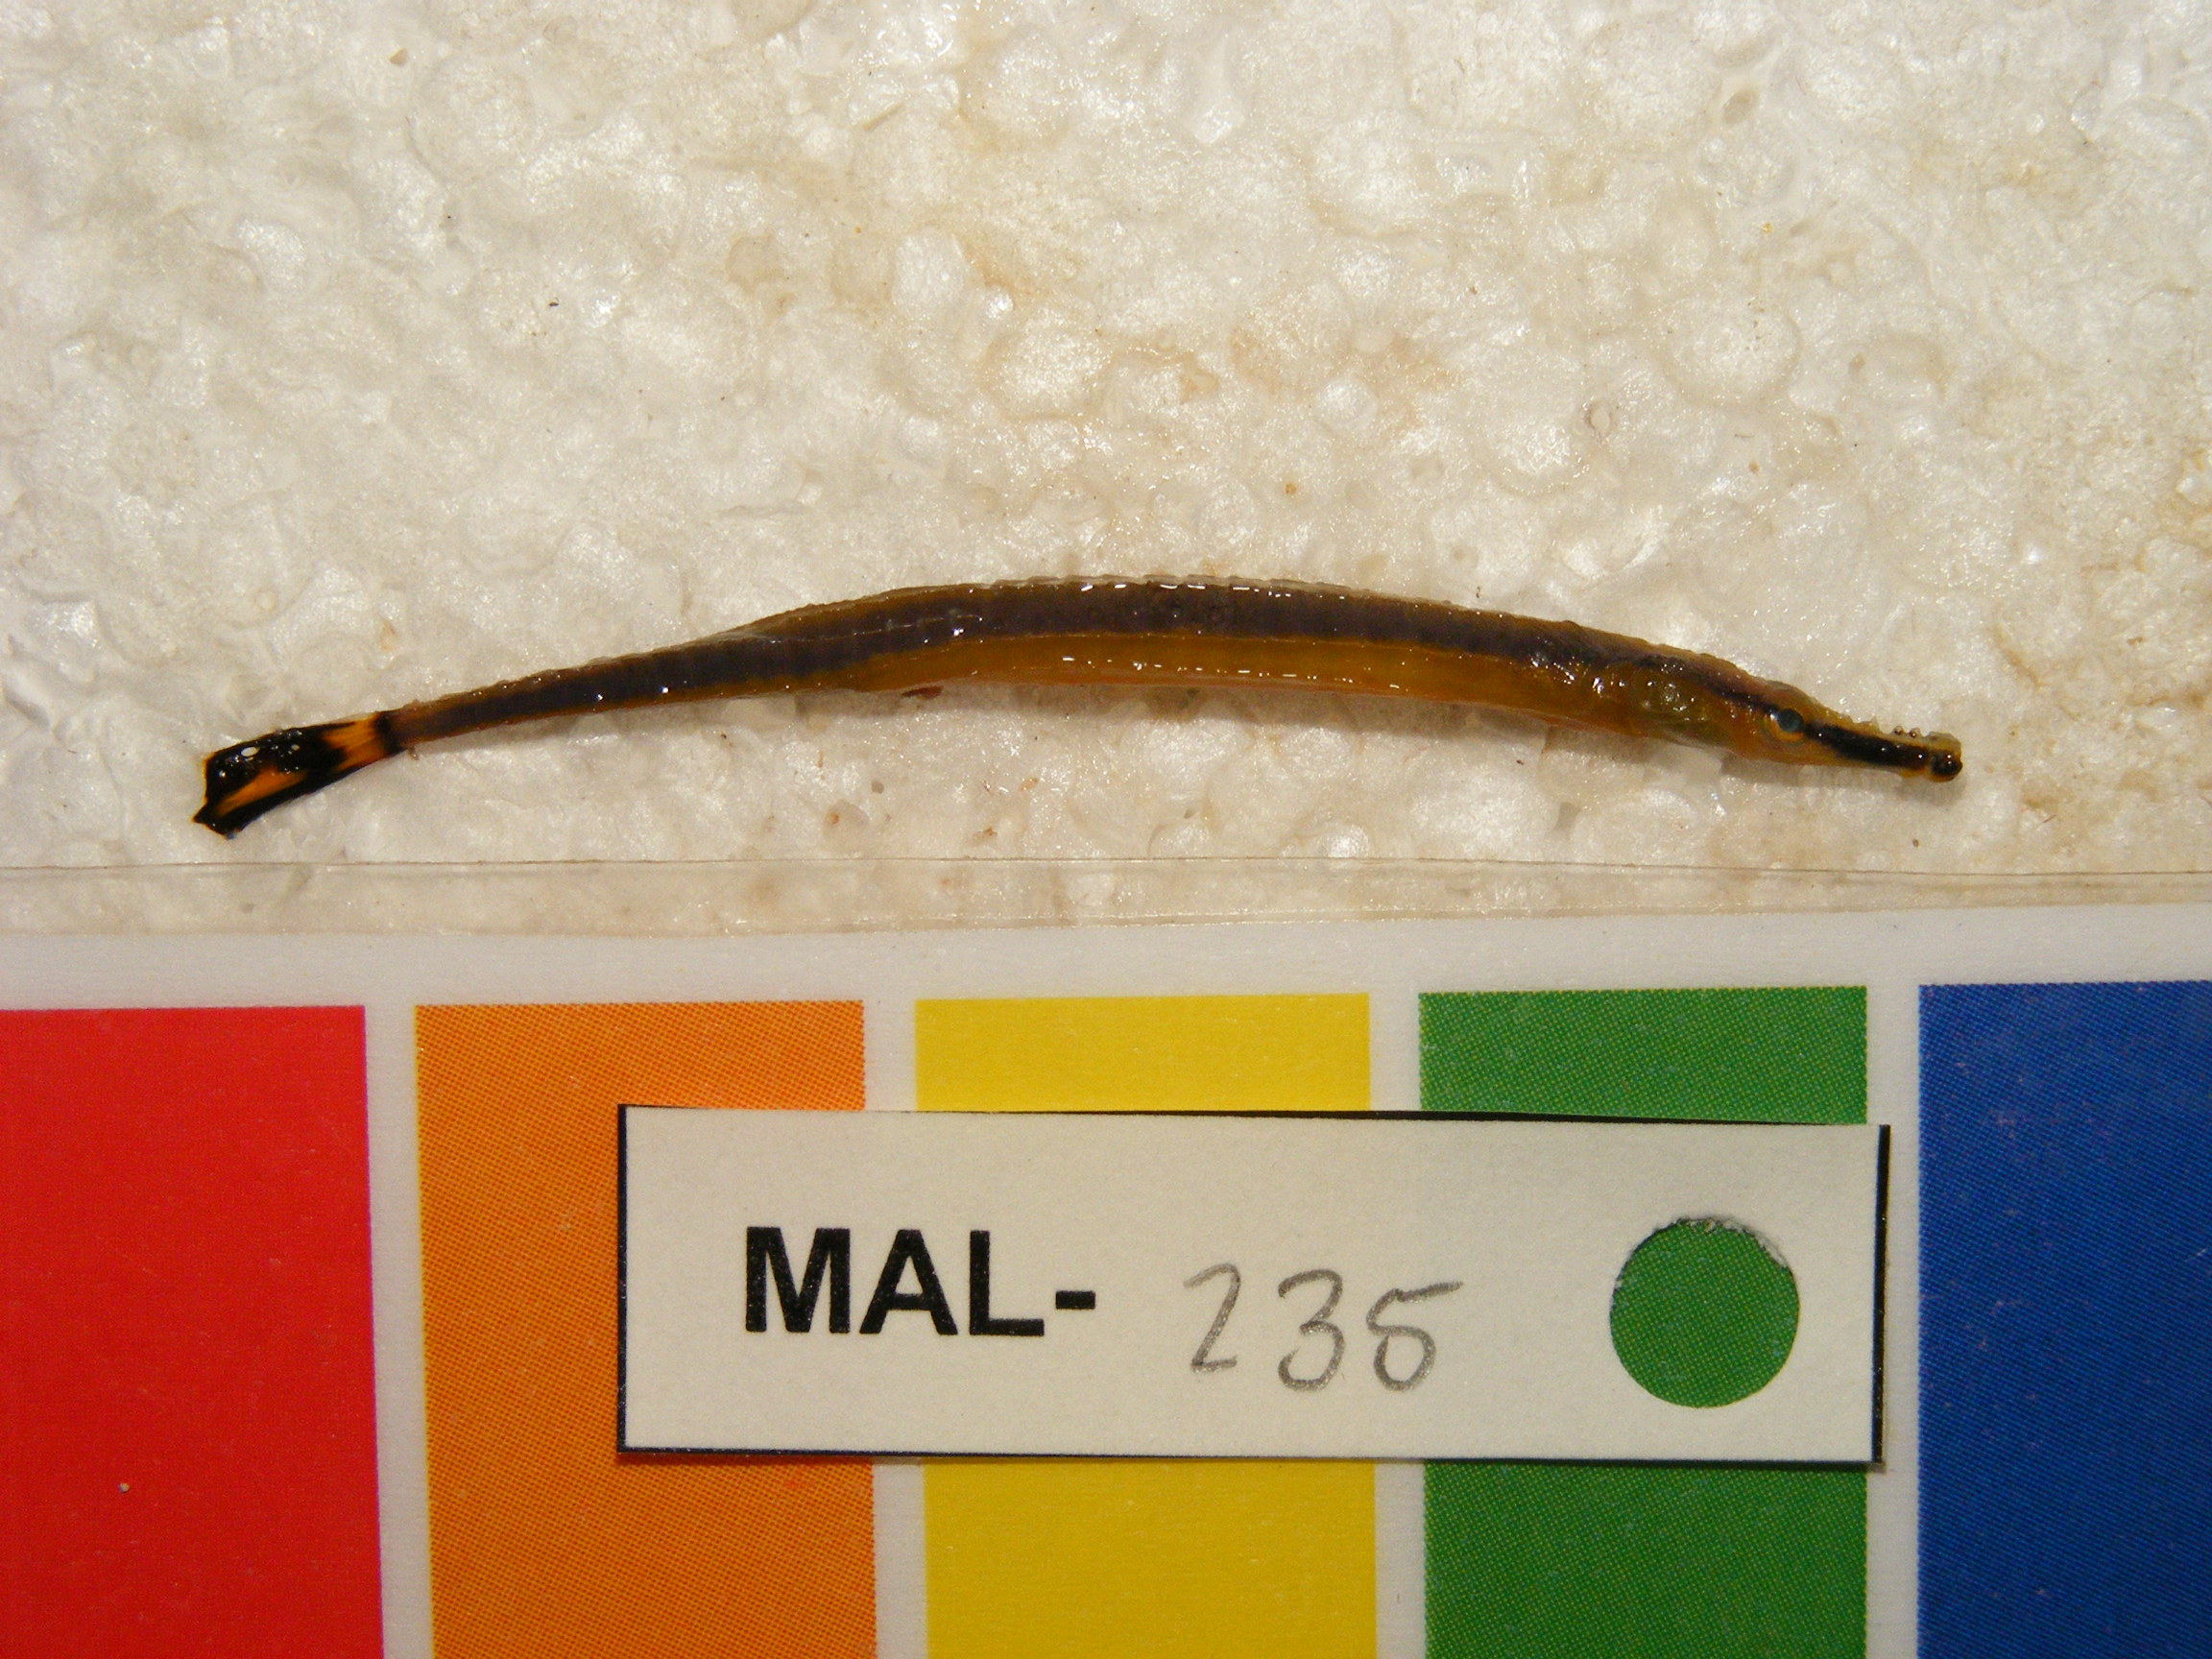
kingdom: Animalia
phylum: Chordata
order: Syngnathiformes
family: Syngnathidae
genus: Hippichthys
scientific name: Hippichthys
